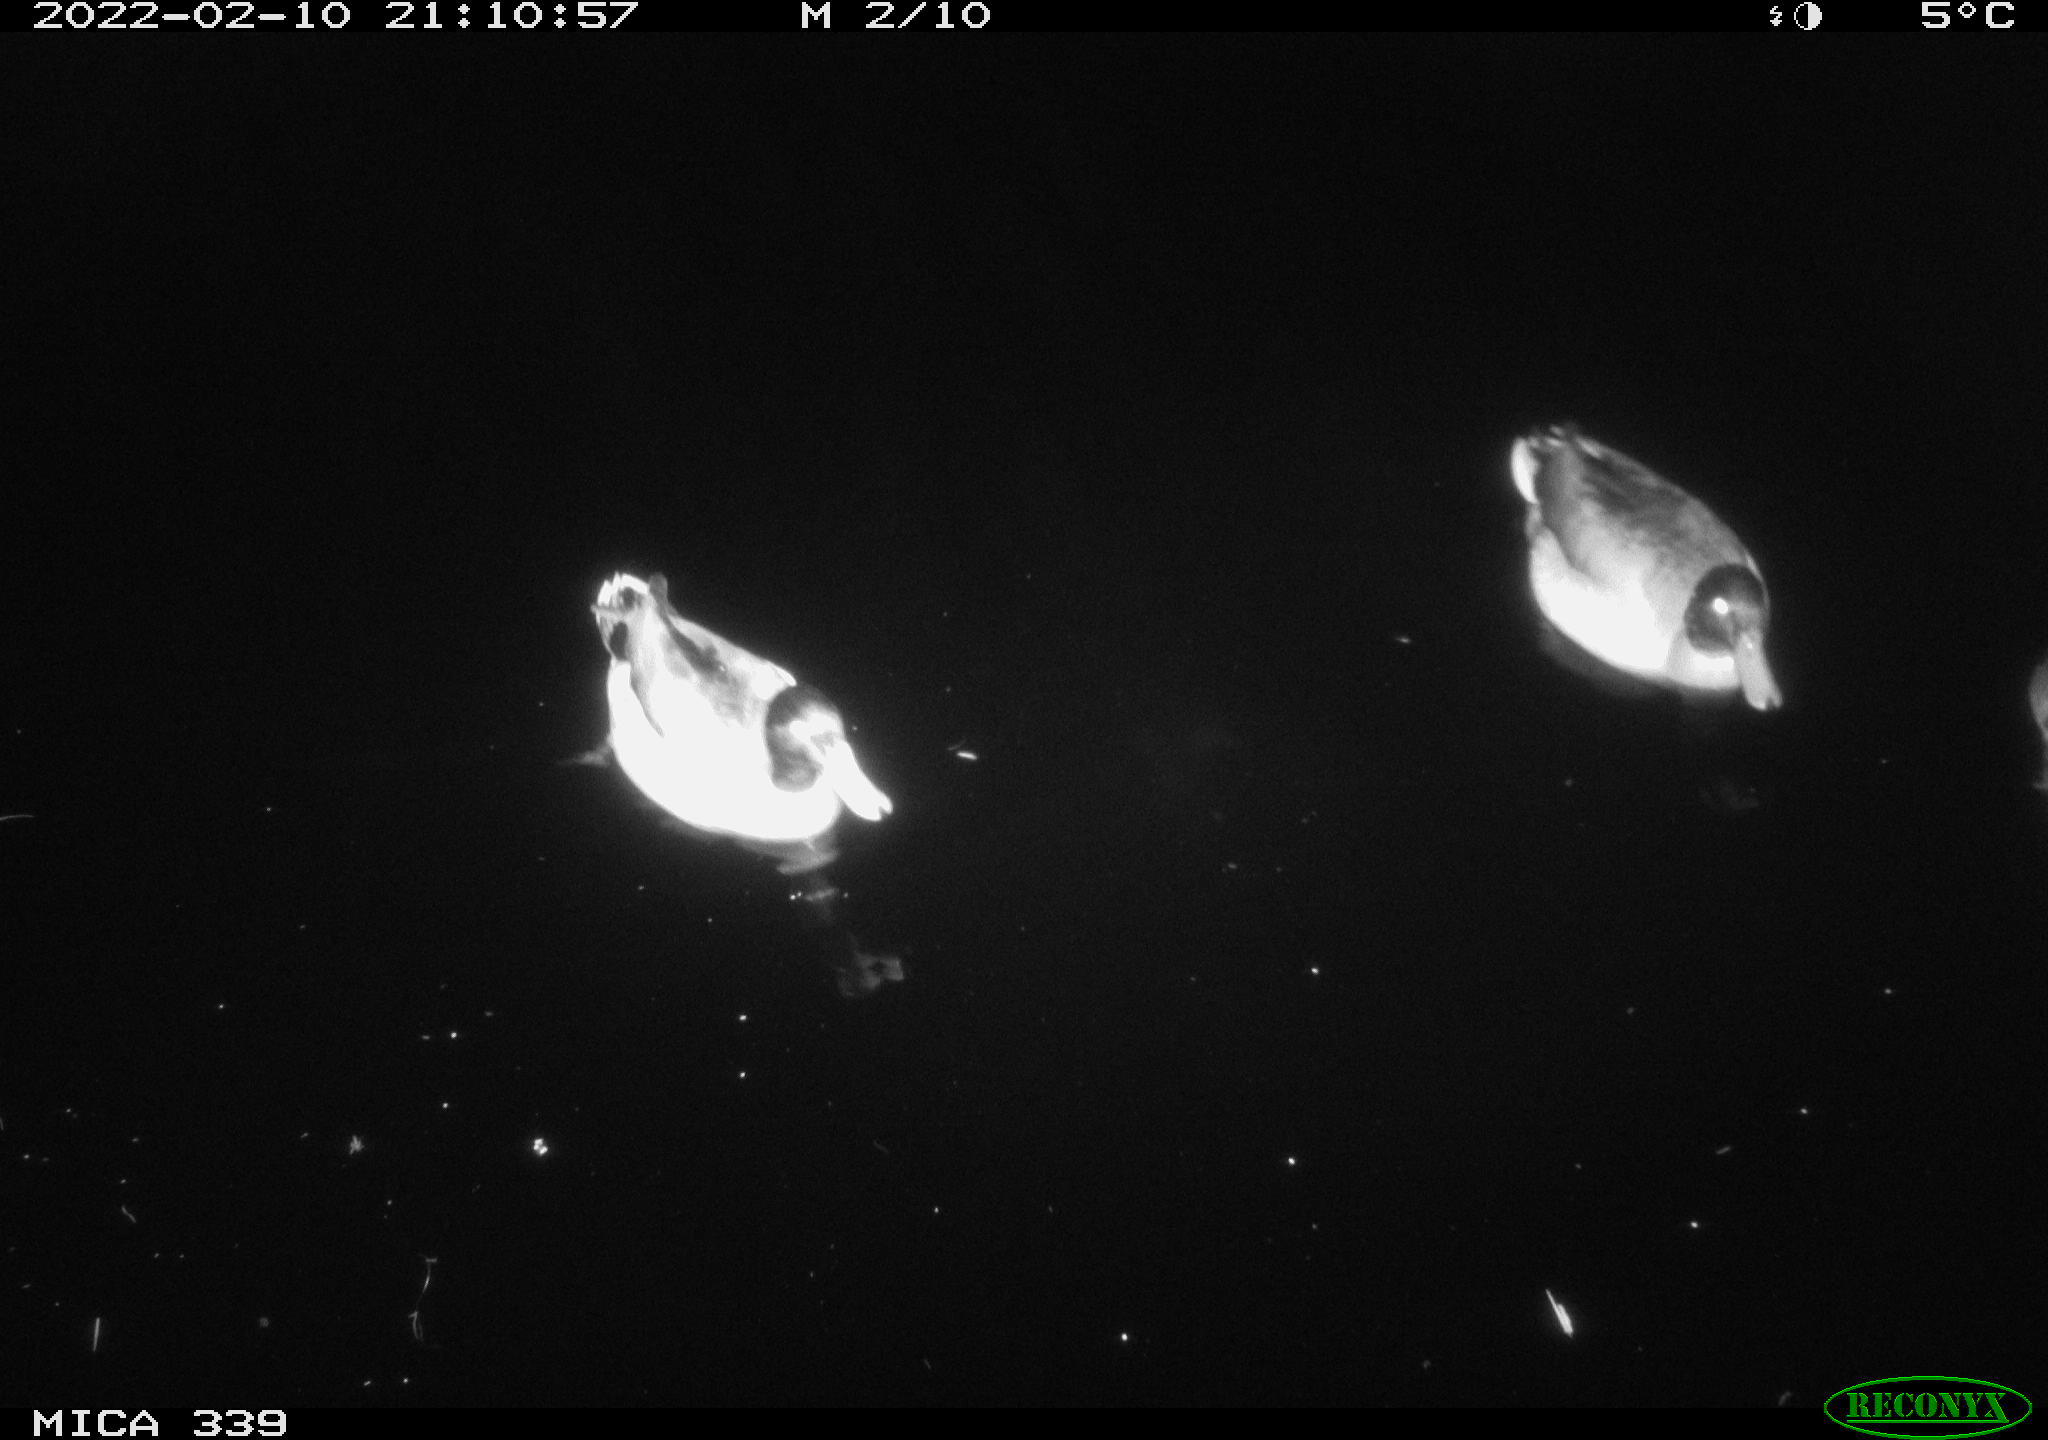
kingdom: Animalia
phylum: Chordata
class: Aves
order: Anseriformes
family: Anatidae
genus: Anas
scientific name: Anas platyrhynchos
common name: Mallard
